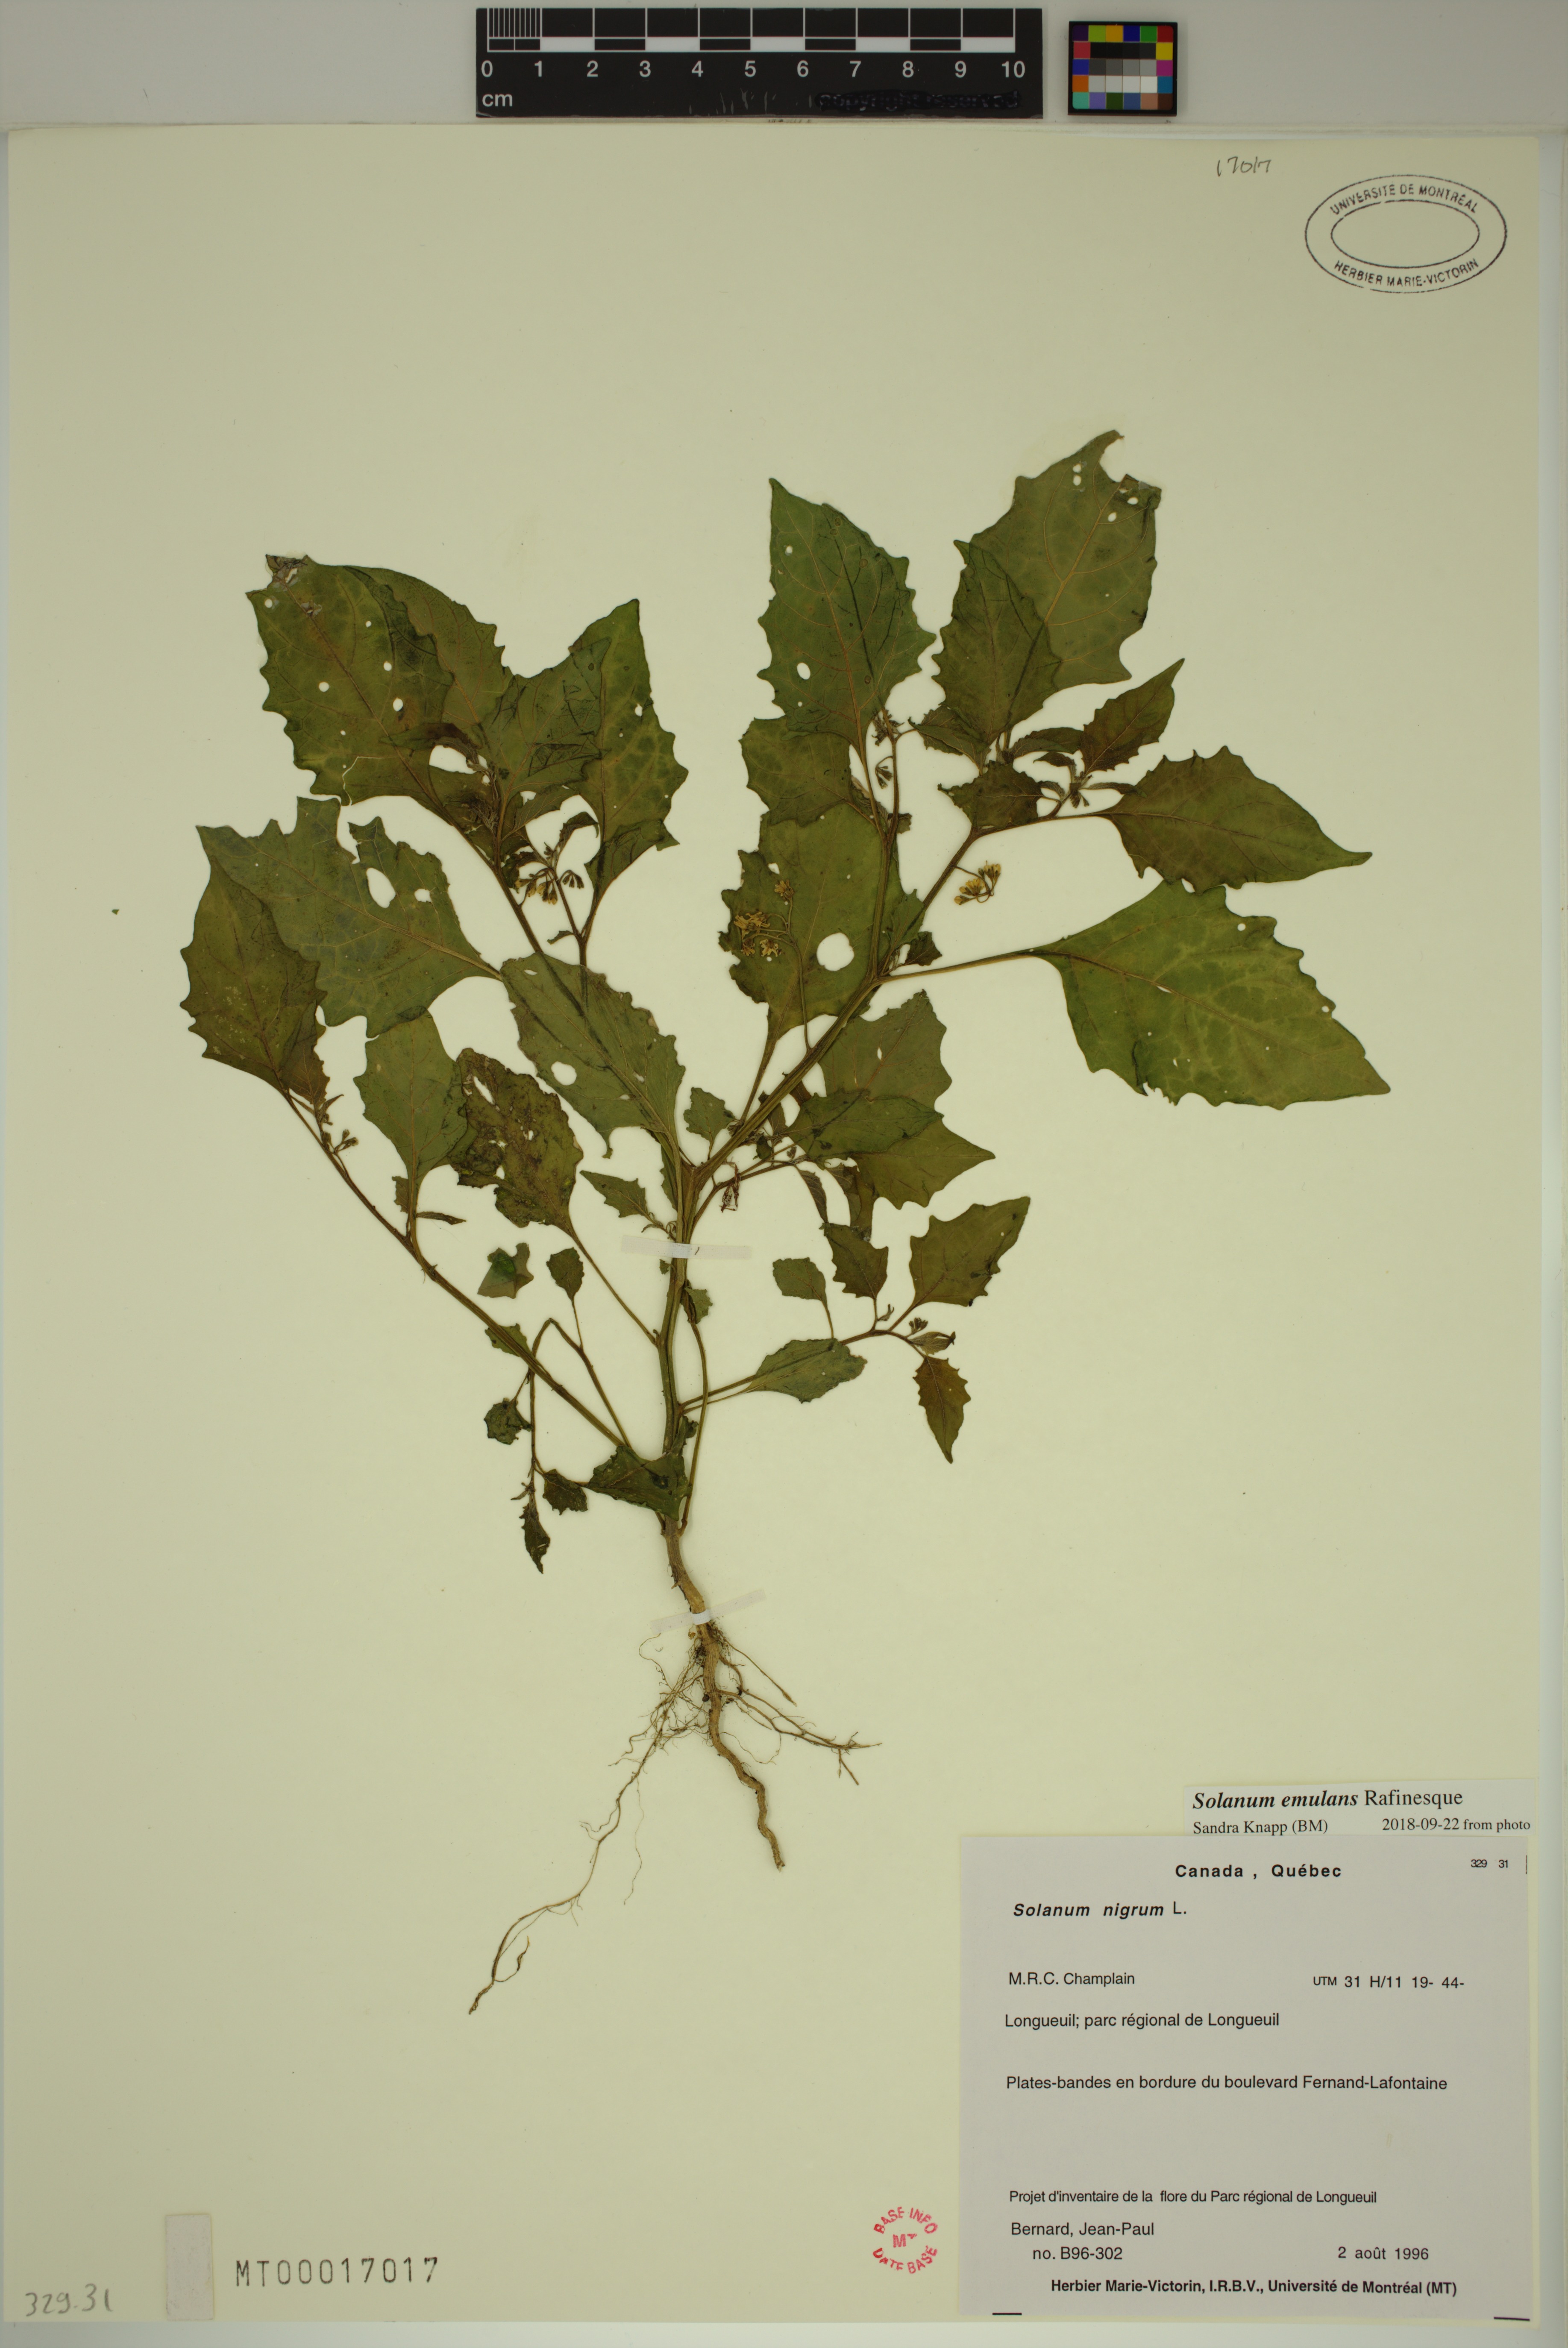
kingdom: Plantae
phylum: Tracheophyta
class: Magnoliopsida
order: Solanales
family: Solanaceae
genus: Solanum
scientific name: Solanum emulans
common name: Eastern black nightshade
